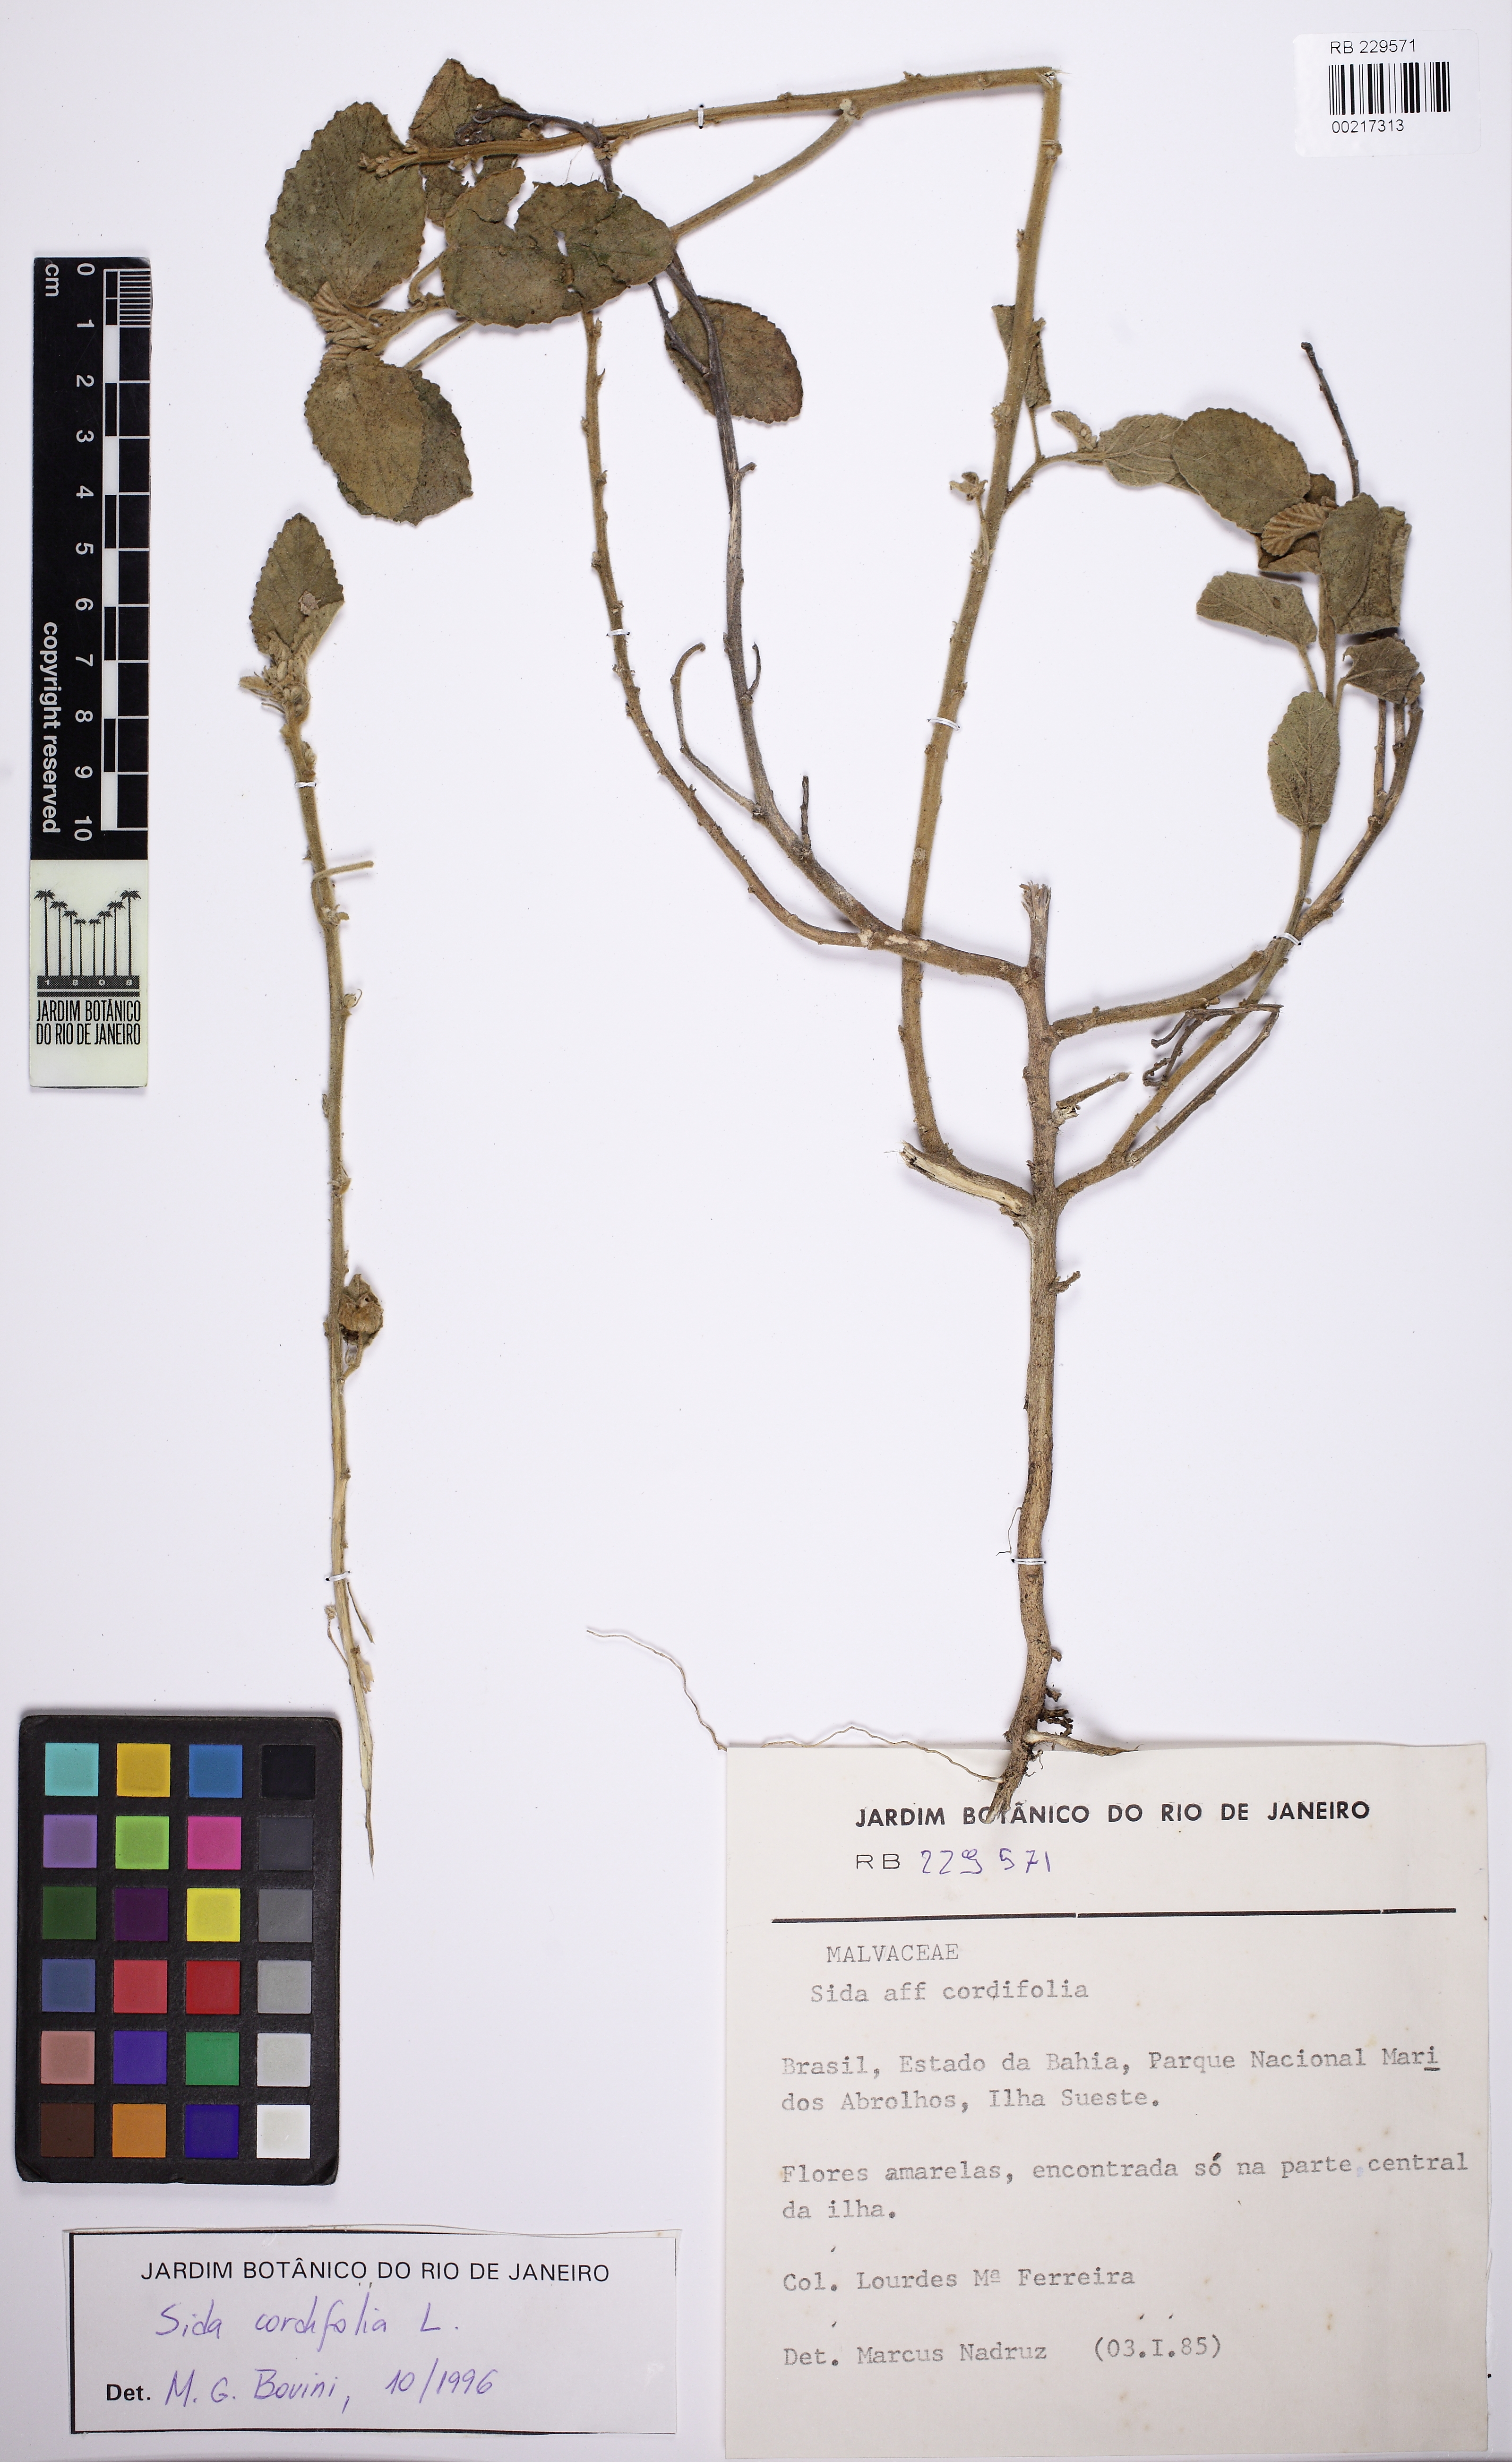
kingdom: Plantae
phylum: Tracheophyta
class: Magnoliopsida
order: Malvales
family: Malvaceae
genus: Sida
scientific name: Sida cordifolia
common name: Ilima
